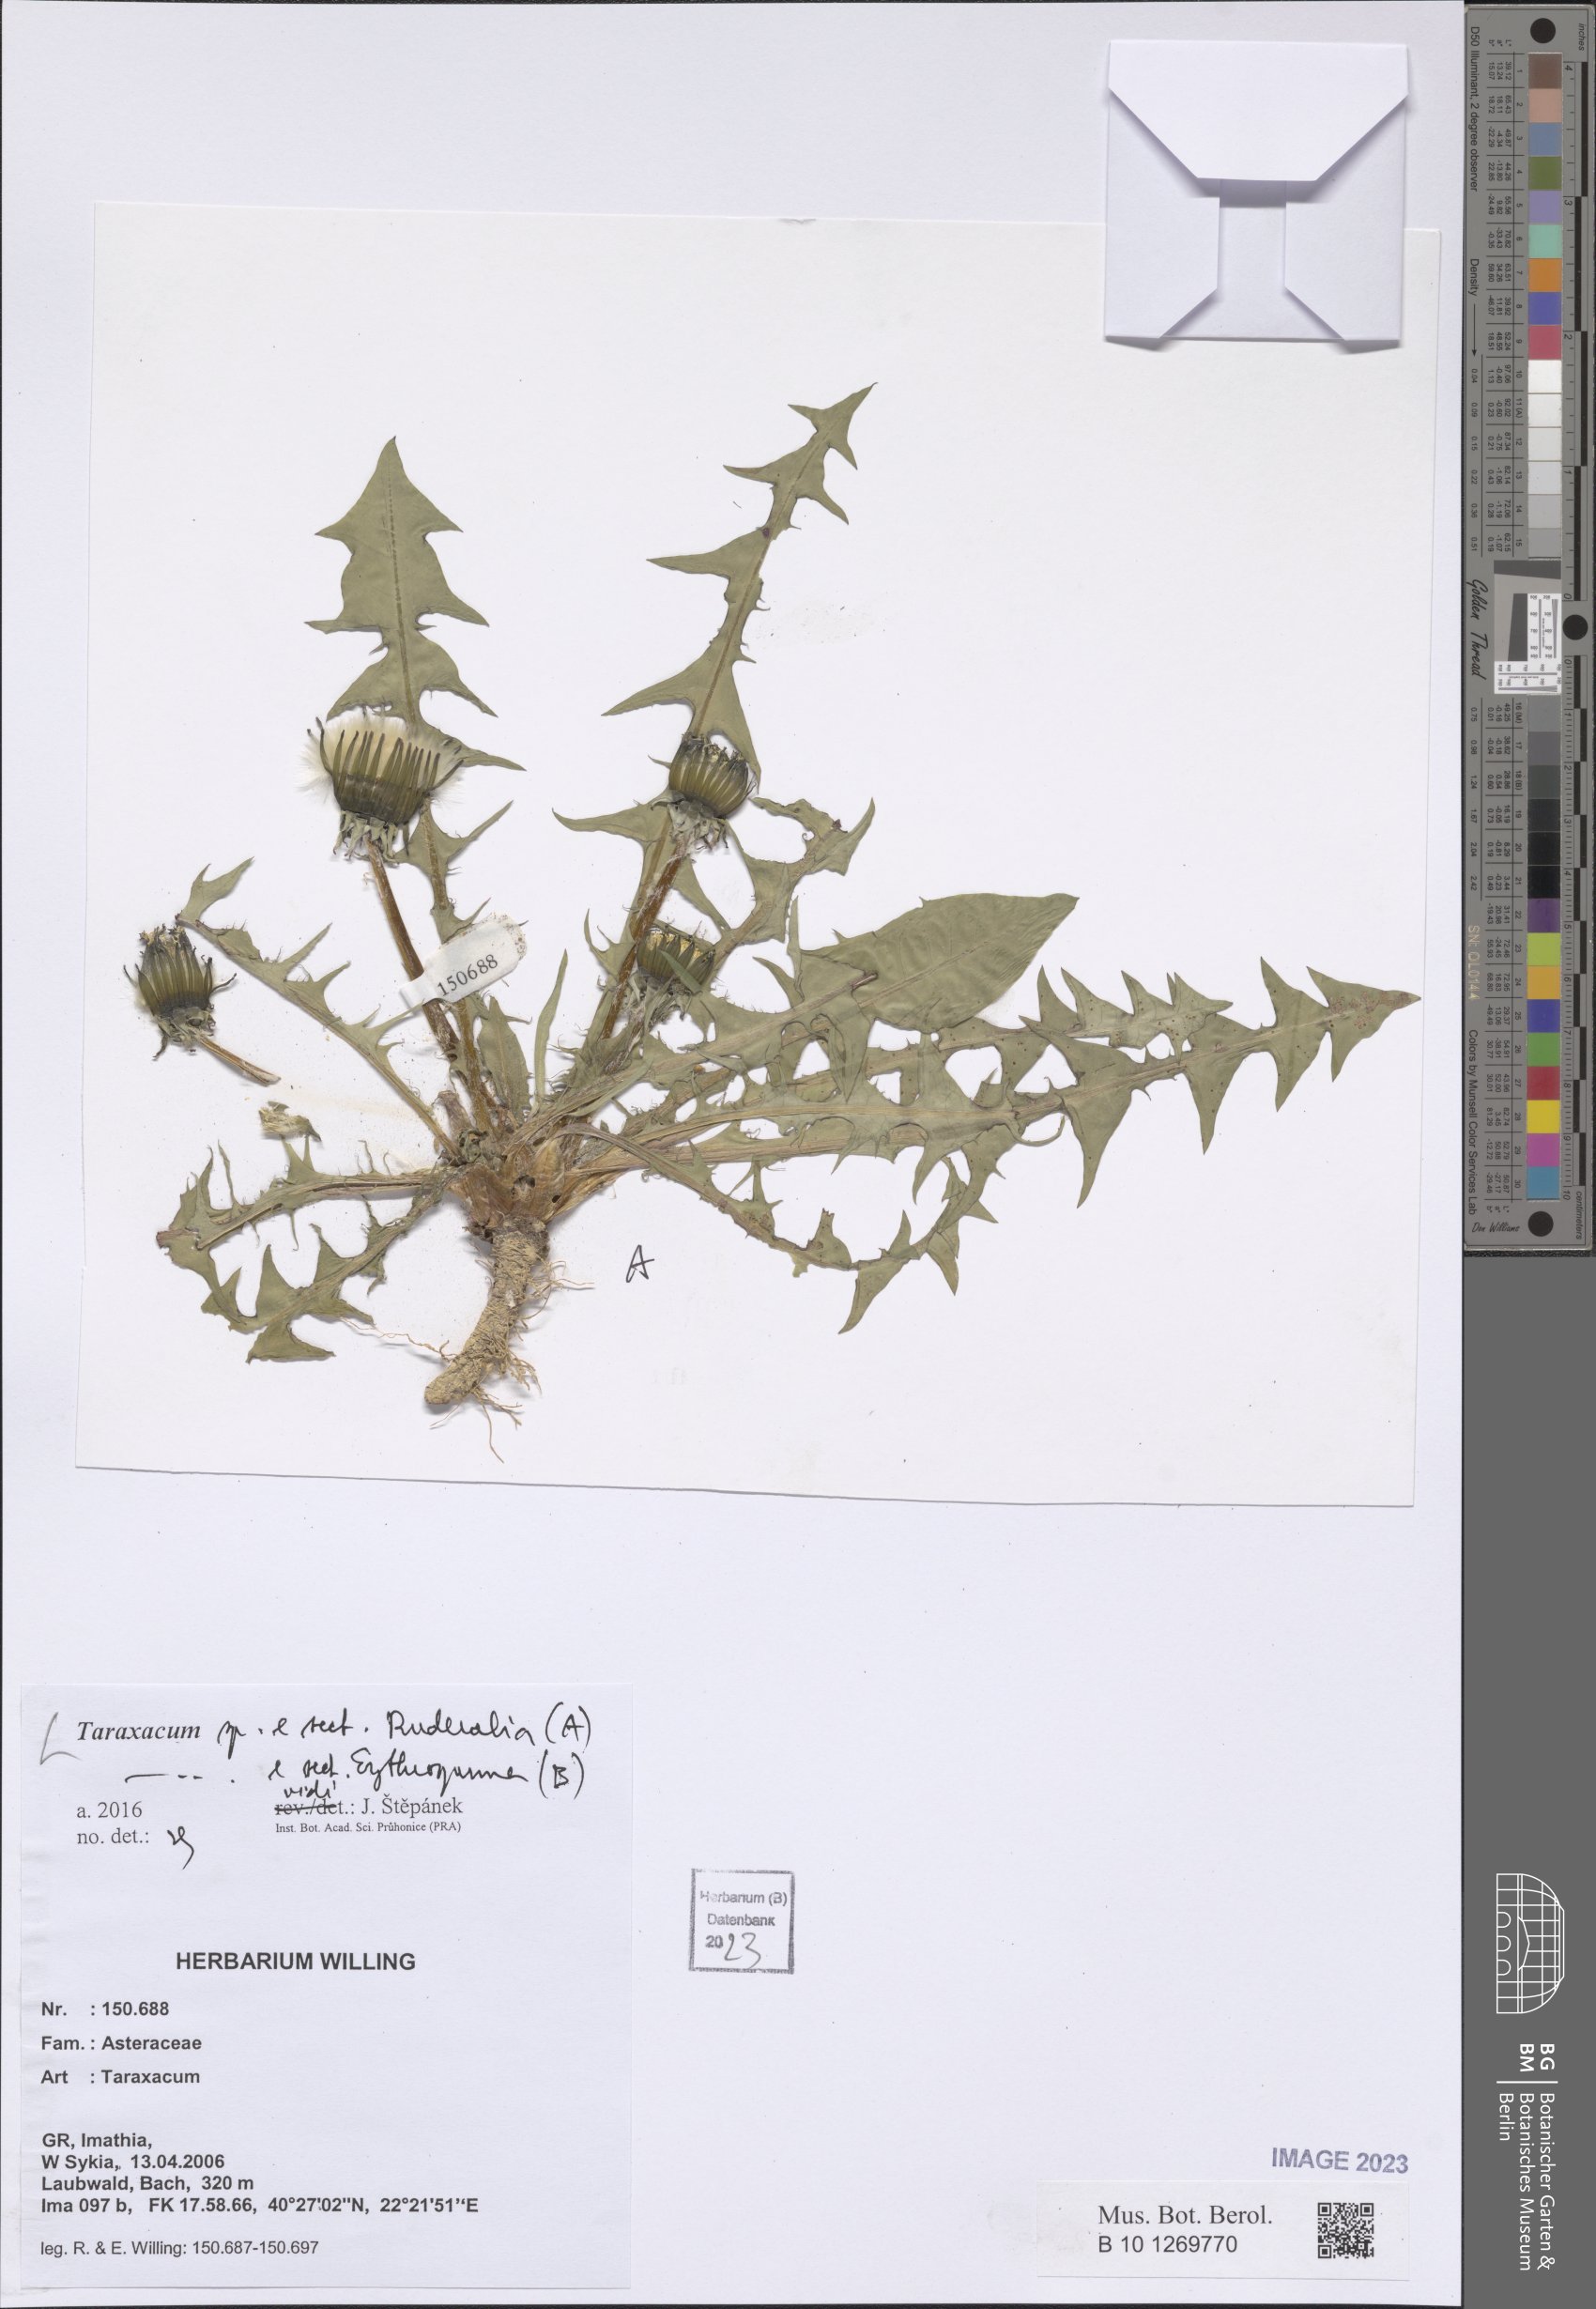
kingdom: Plantae
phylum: Tracheophyta
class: Magnoliopsida
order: Asterales
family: Asteraceae
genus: Taraxacum
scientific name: Taraxacum
